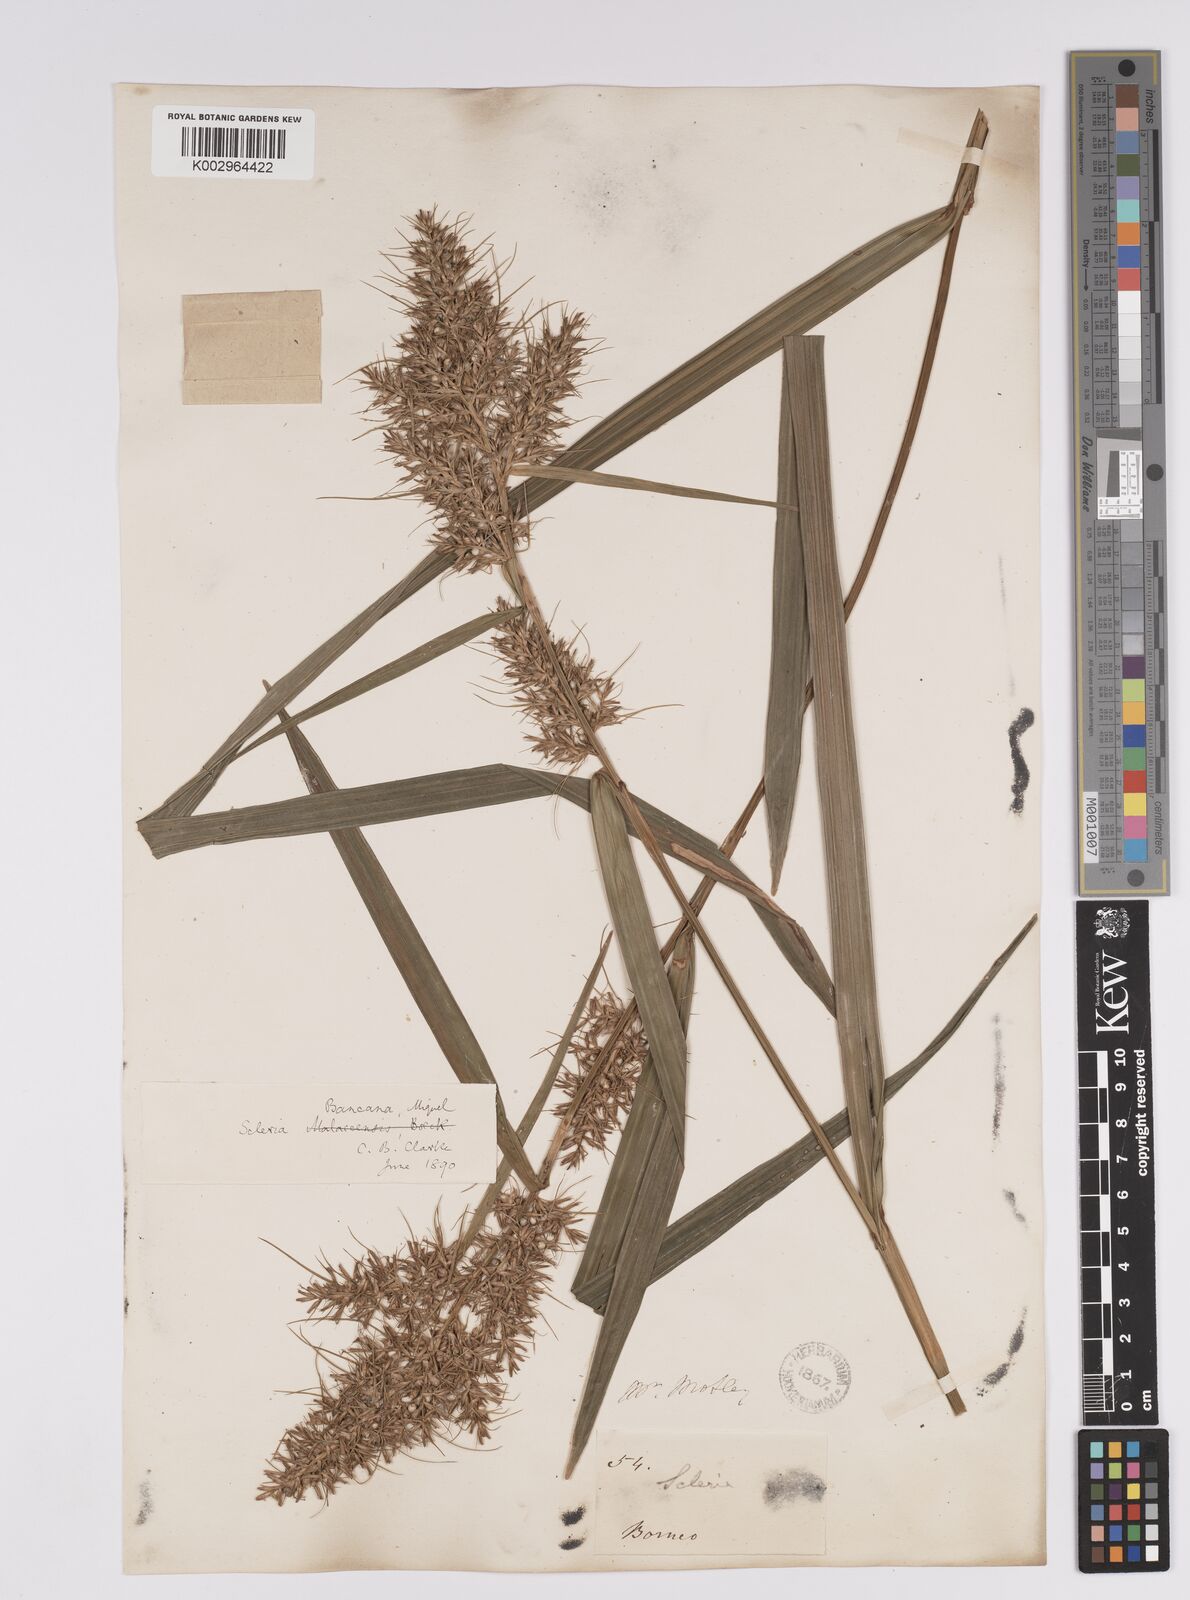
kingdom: Plantae
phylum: Tracheophyta
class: Liliopsida
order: Poales
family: Cyperaceae
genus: Scleria
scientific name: Scleria ciliaris
